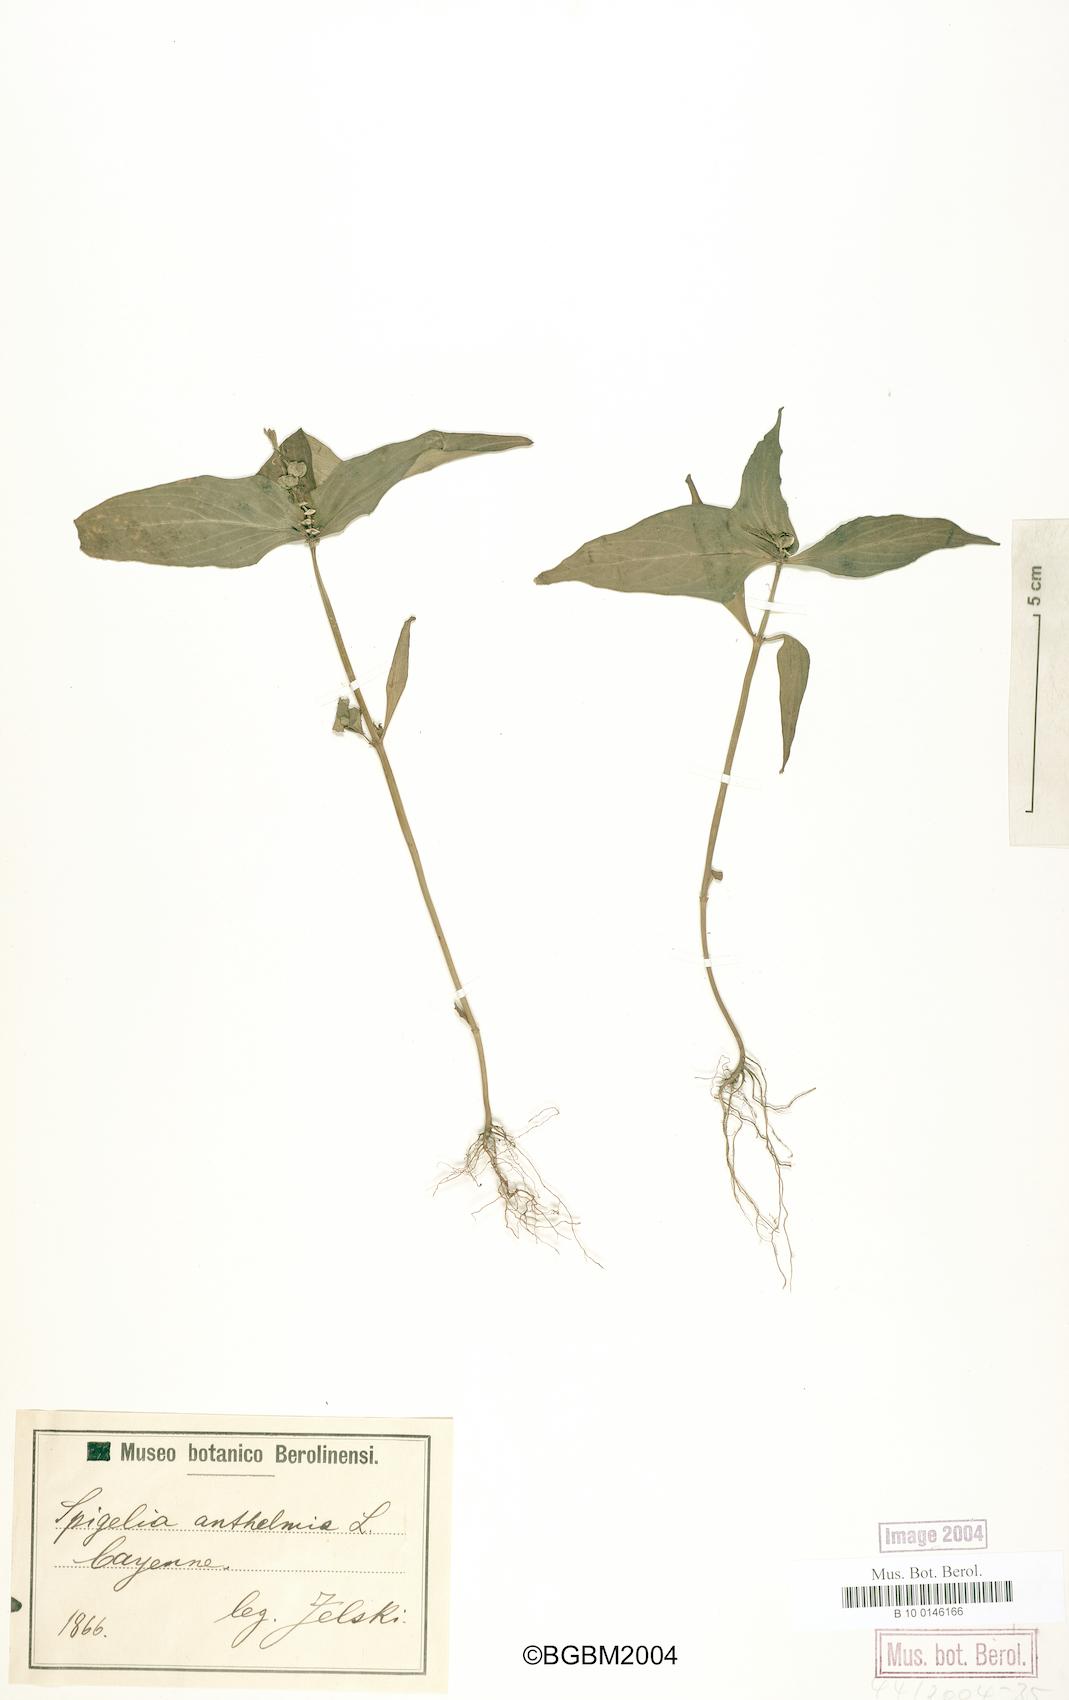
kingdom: Plantae
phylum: Tracheophyta
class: Magnoliopsida
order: Gentianales
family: Loganiaceae
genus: Spigelia
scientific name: Spigelia anthelmia
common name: West indian-pink
